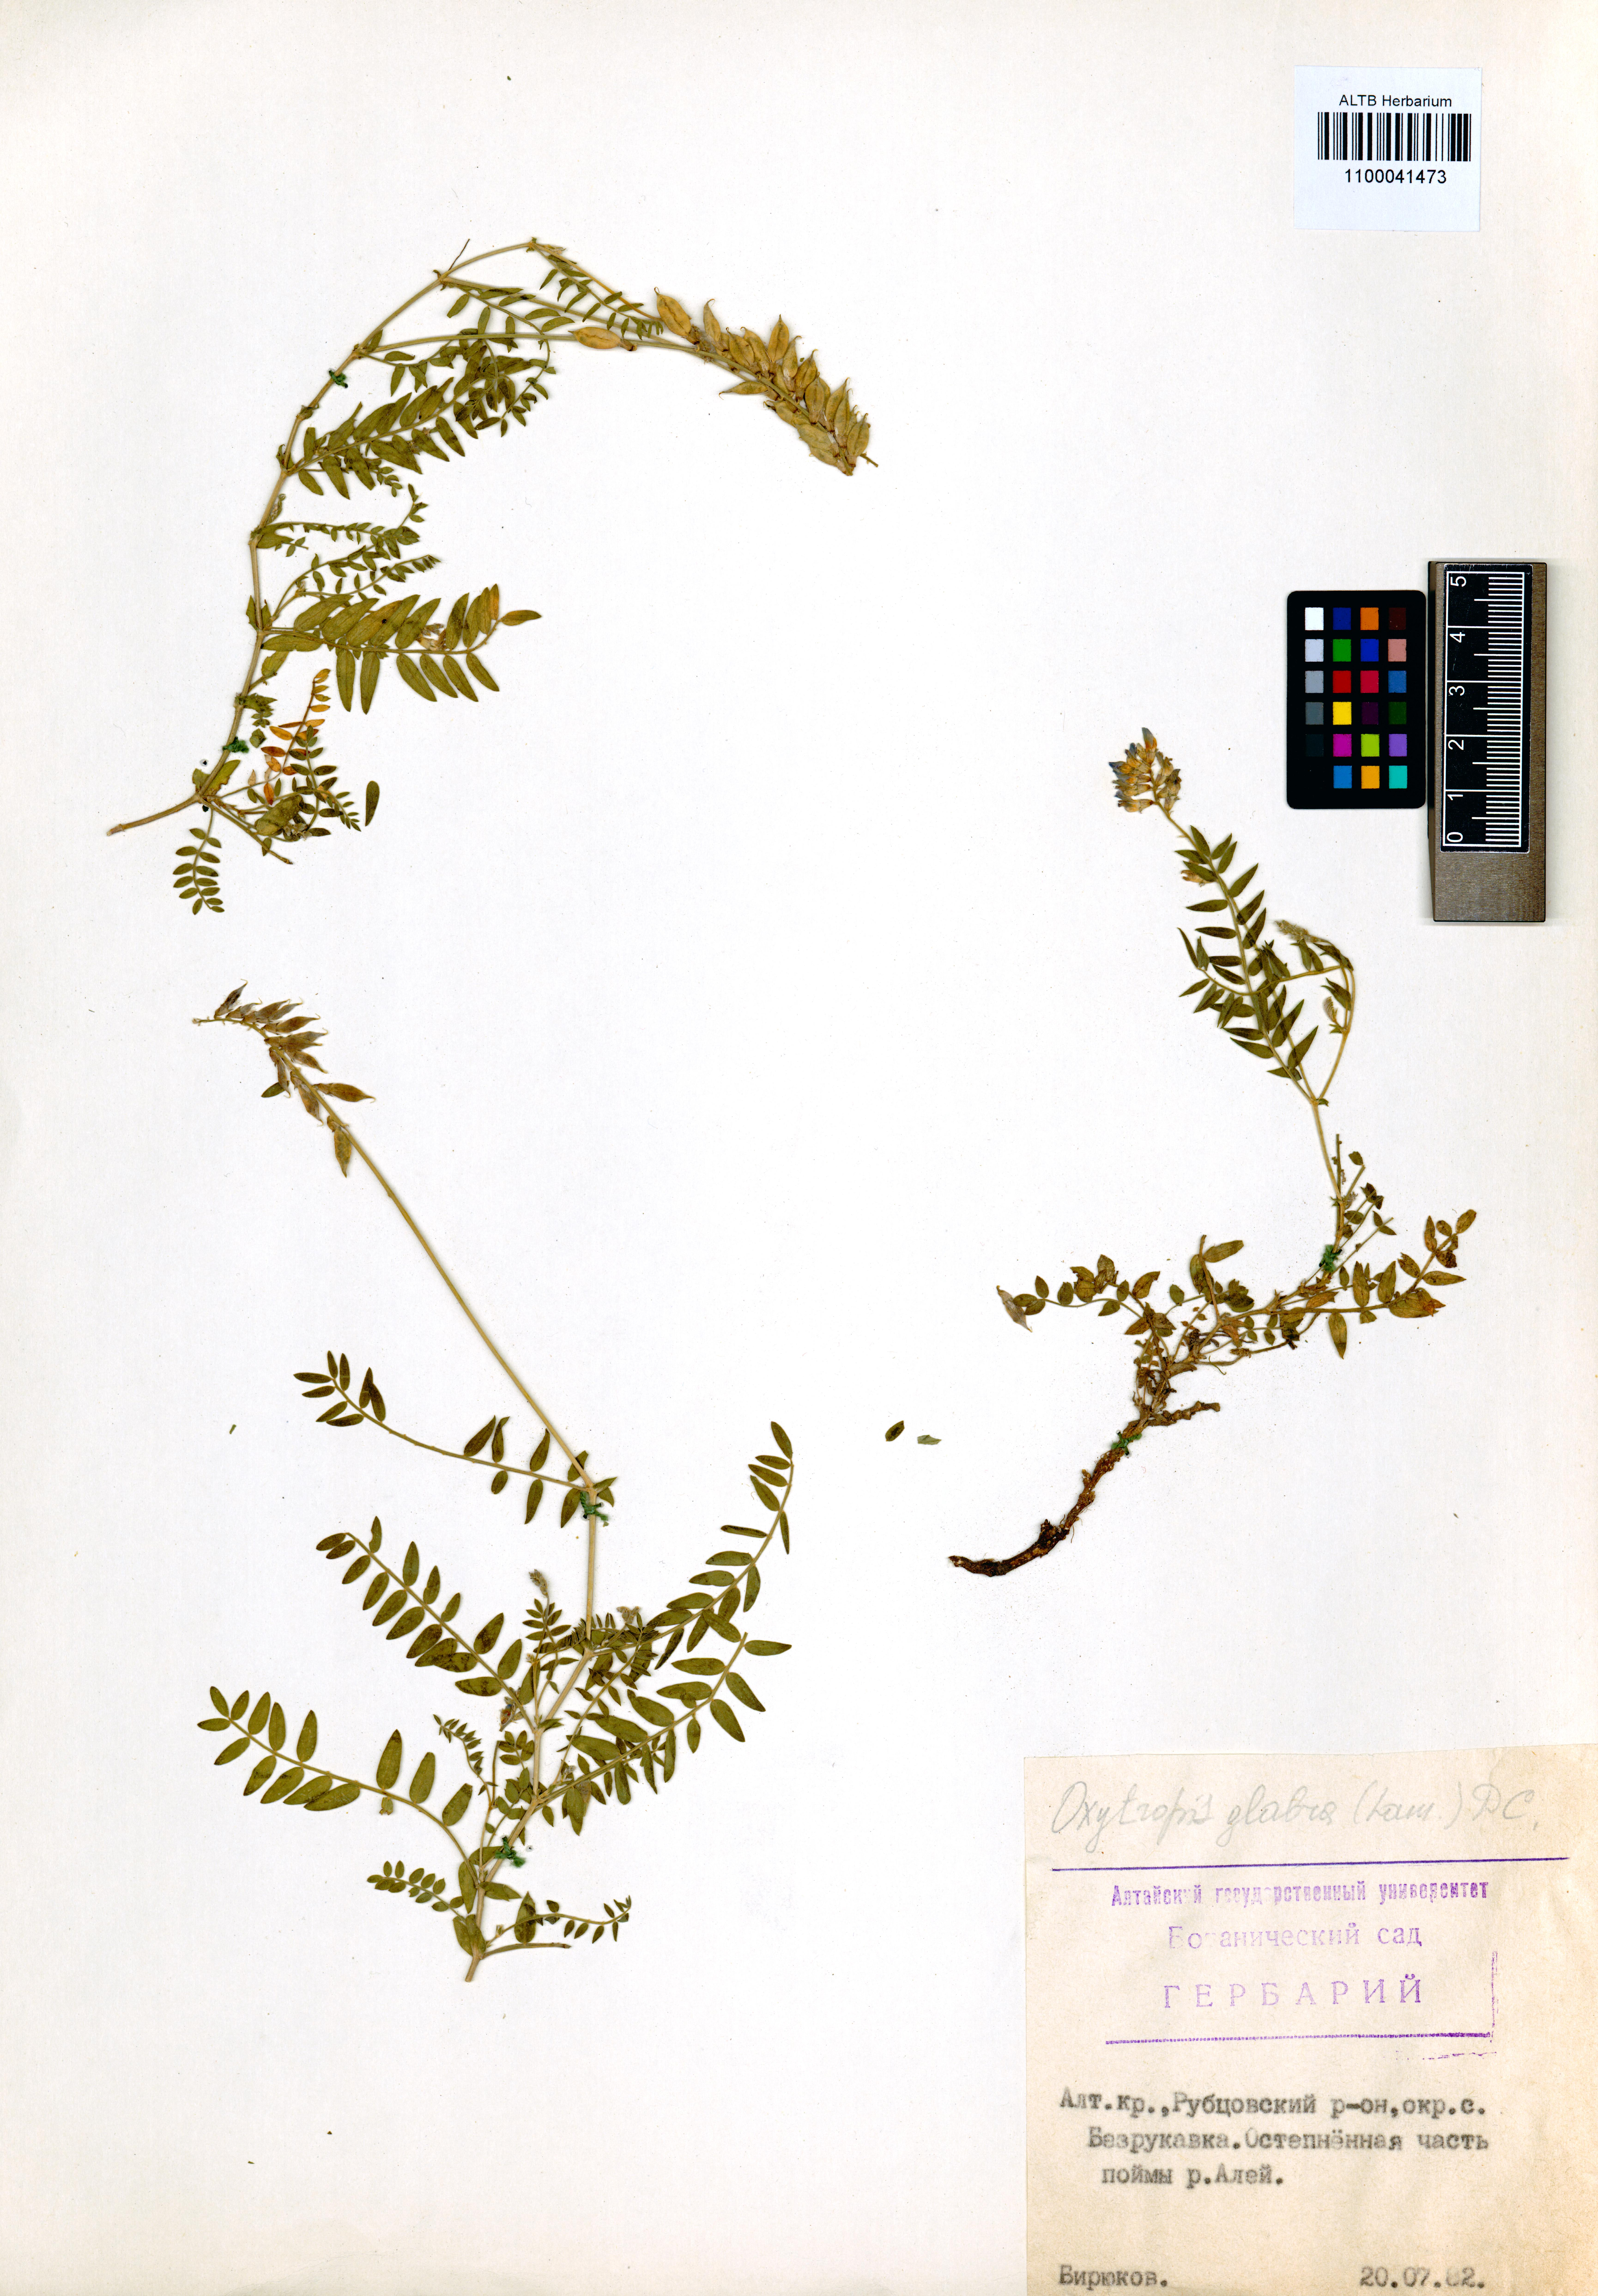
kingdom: Plantae
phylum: Tracheophyta
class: Magnoliopsida
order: Fabales
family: Fabaceae
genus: Oxytropis
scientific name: Oxytropis glabra
